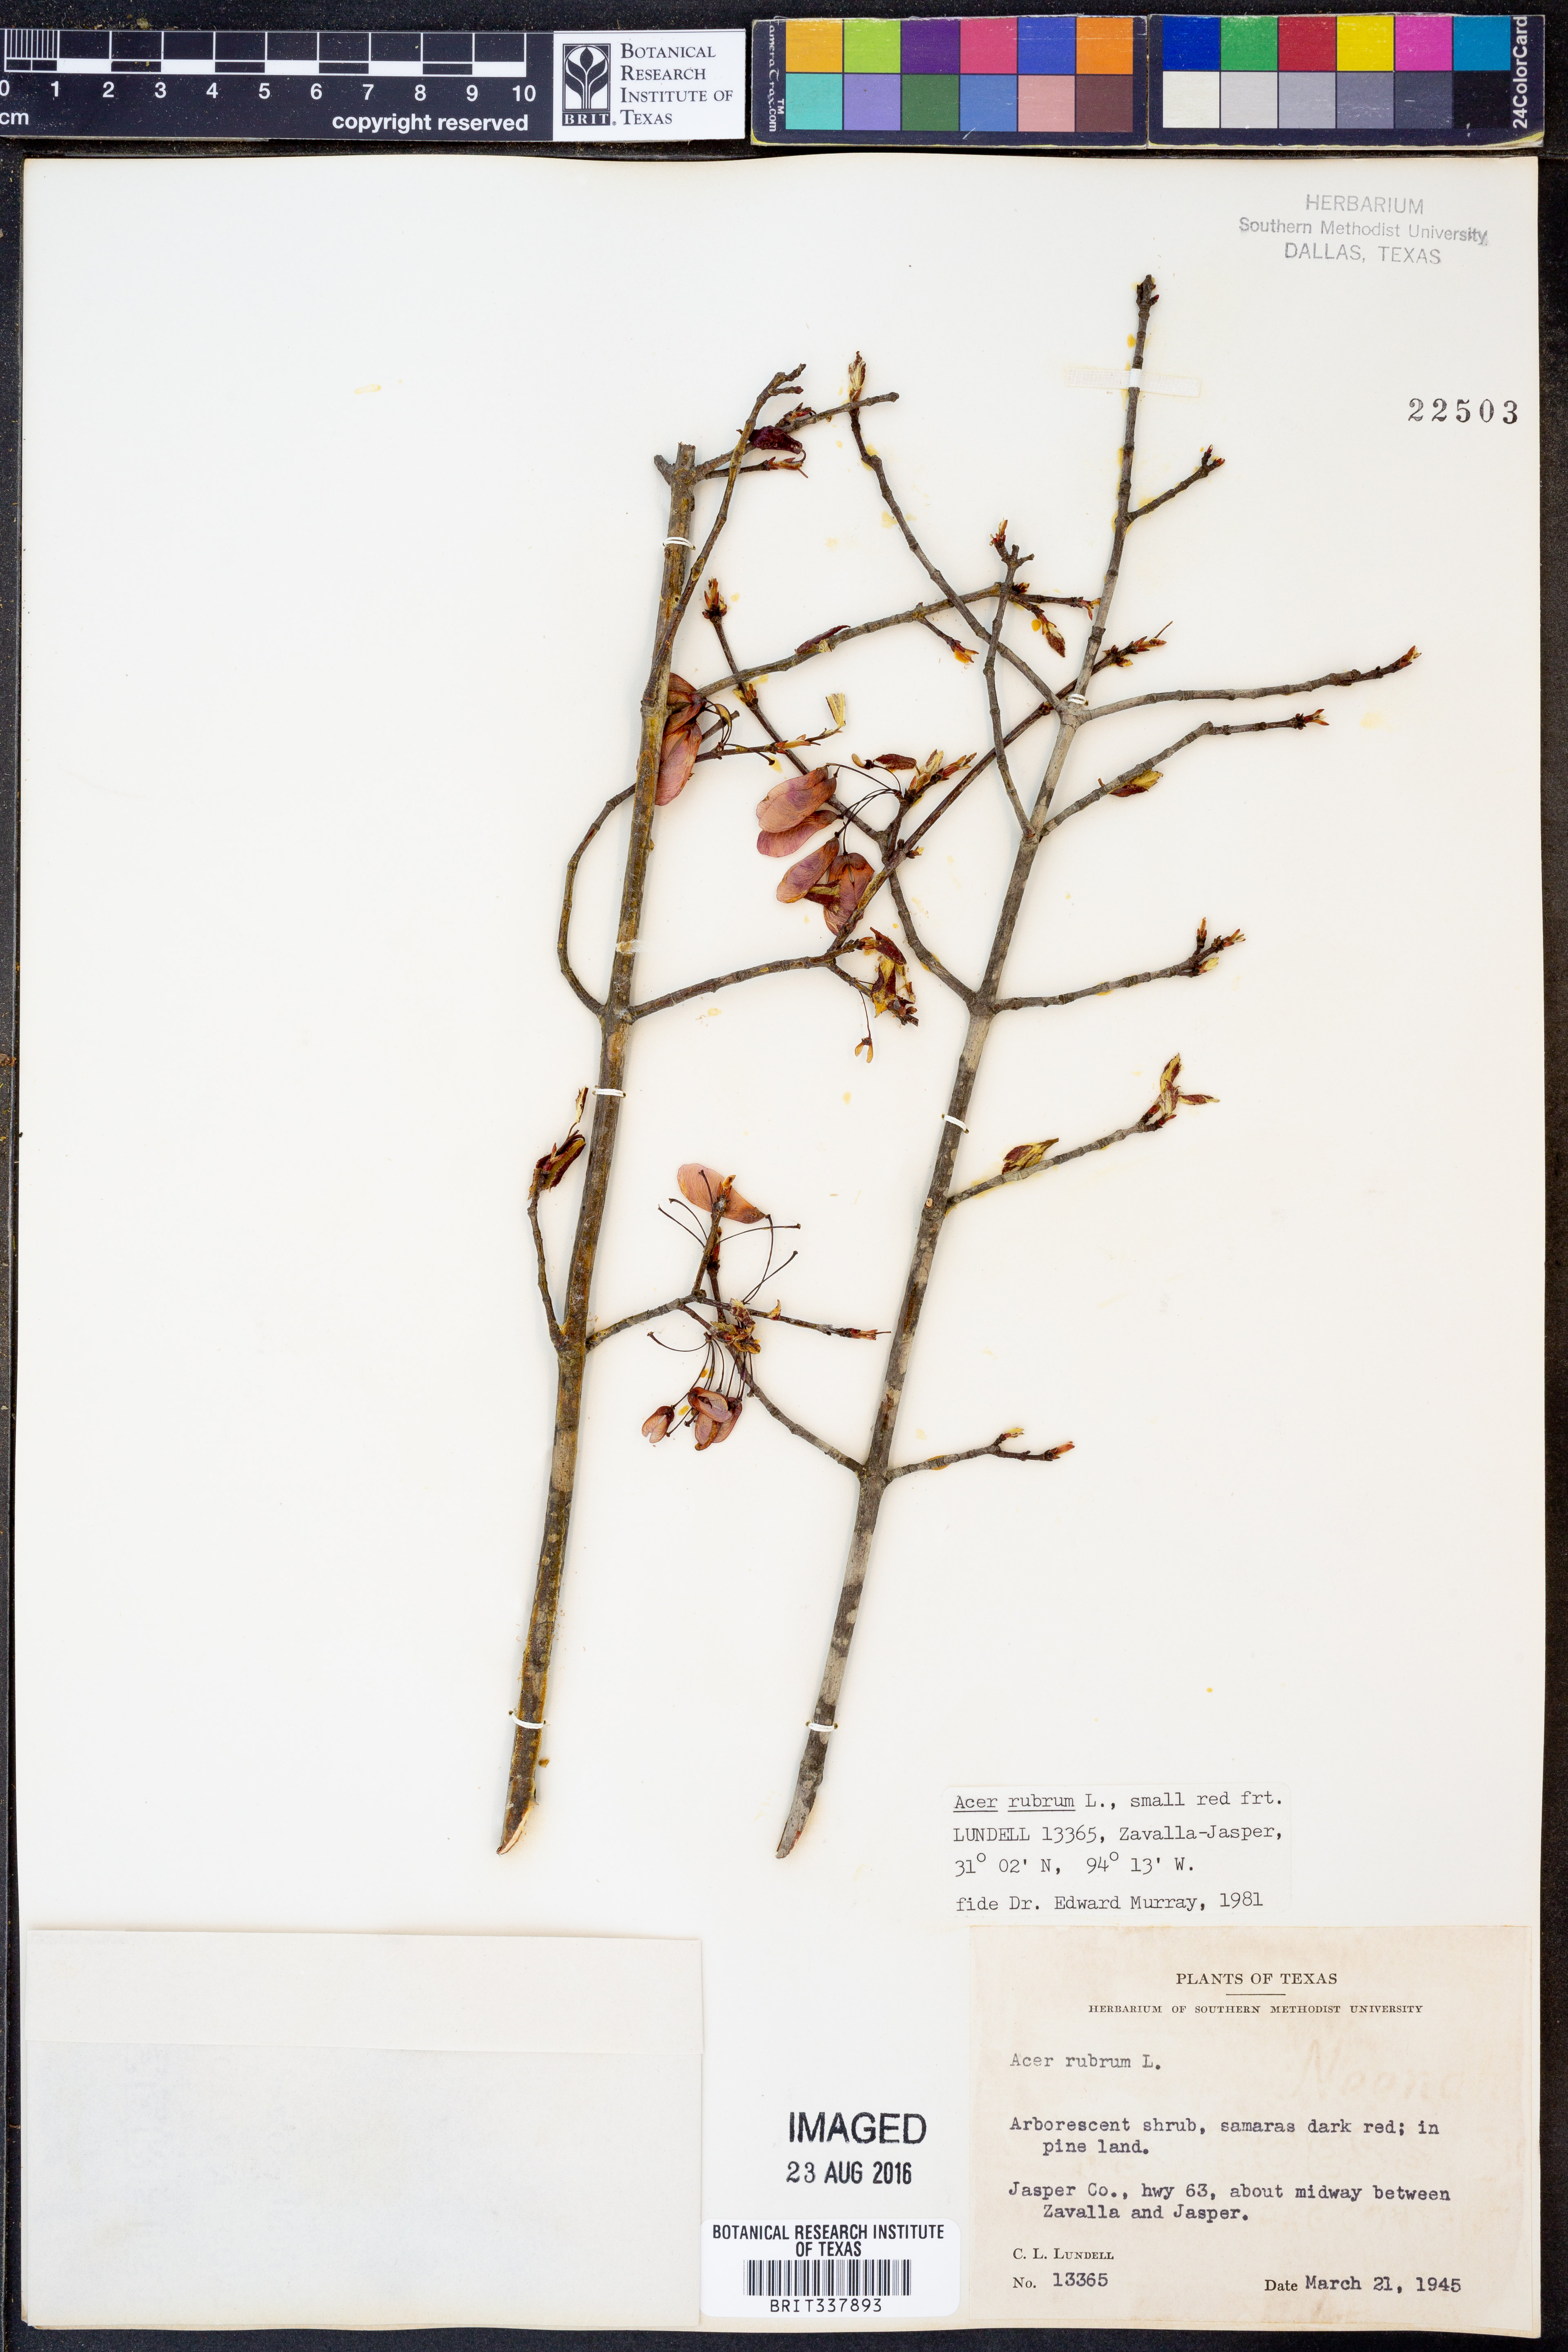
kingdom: Plantae
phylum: Tracheophyta
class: Magnoliopsida
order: Sapindales
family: Sapindaceae
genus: Acer
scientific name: Acer rubrum
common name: Red maple
